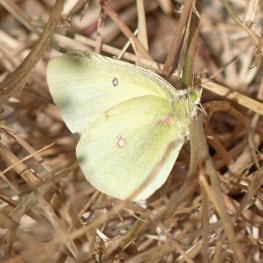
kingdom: Animalia
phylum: Arthropoda
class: Insecta
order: Lepidoptera
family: Pieridae
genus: Colias
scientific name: Colias philodice
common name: Clouded Sulphur
